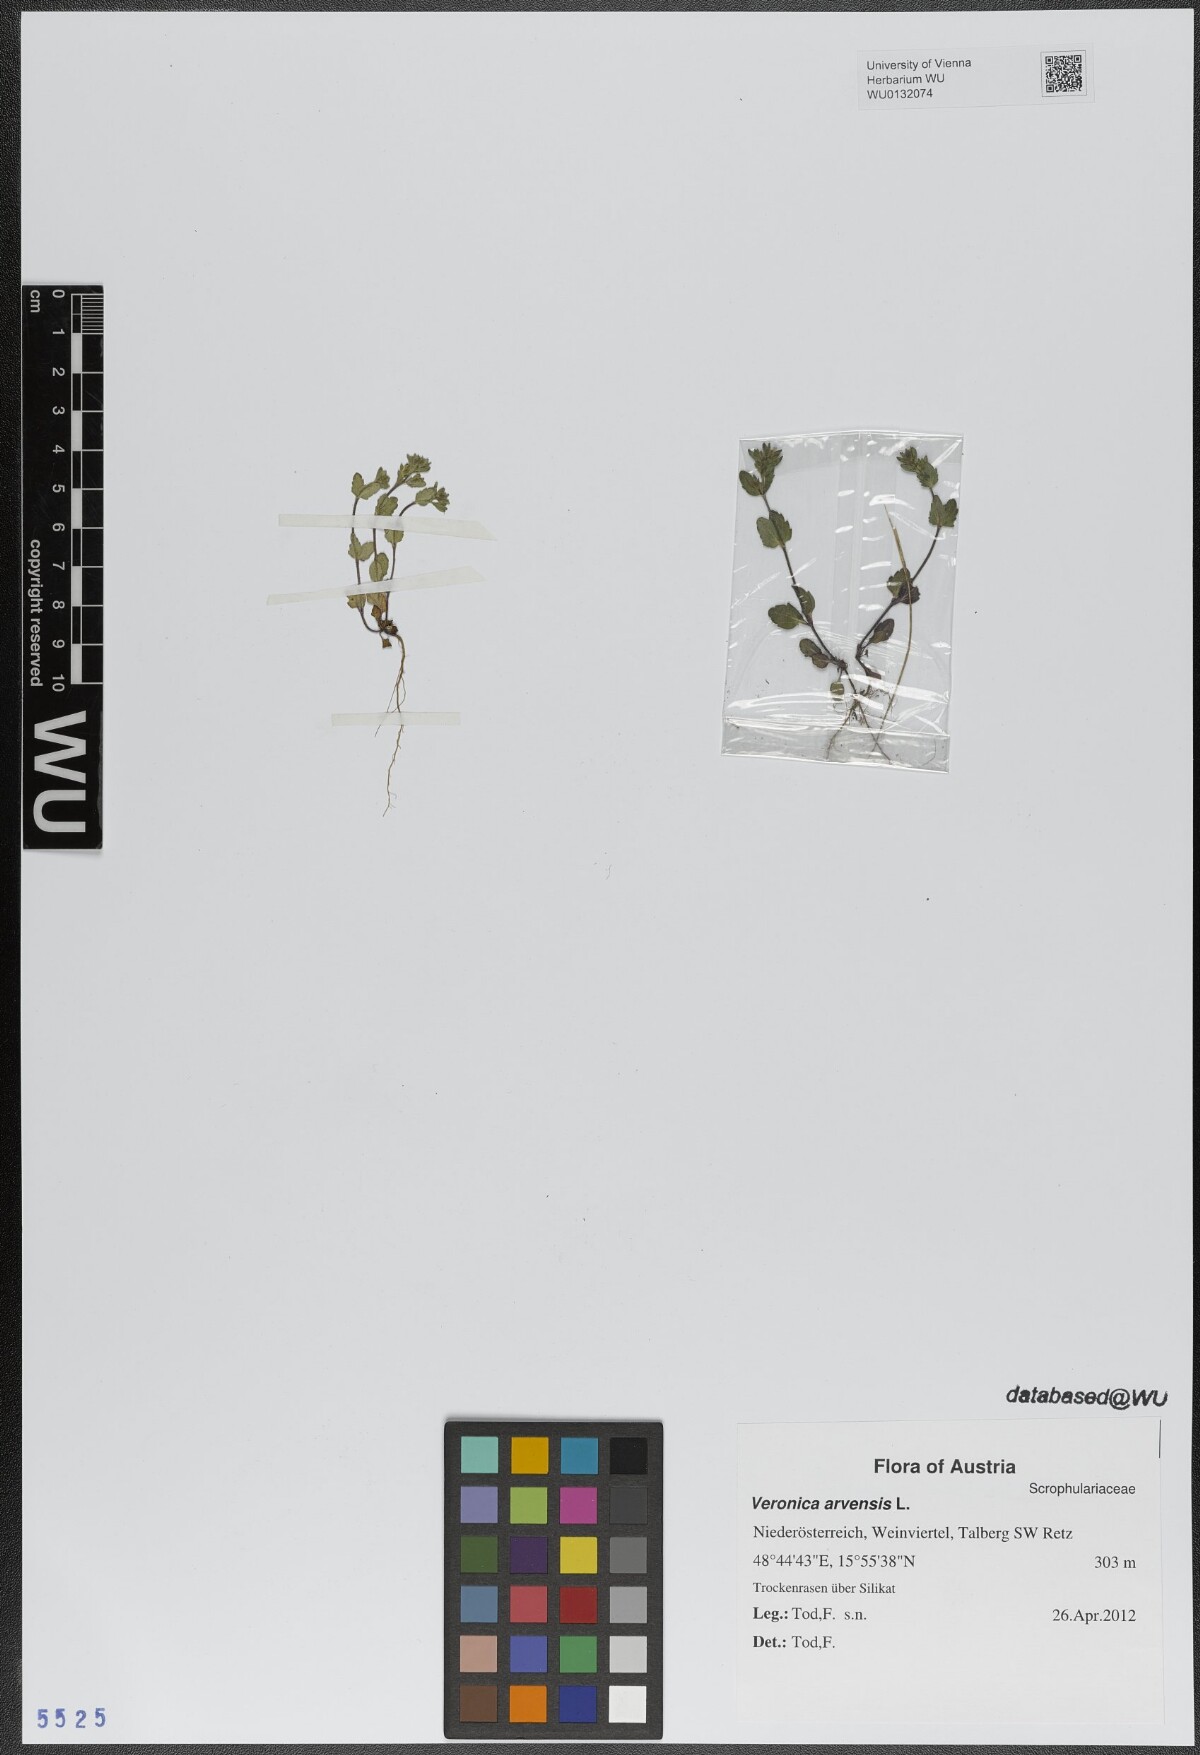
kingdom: Plantae
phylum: Tracheophyta
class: Magnoliopsida
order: Lamiales
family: Plantaginaceae
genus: Veronica
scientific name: Veronica arvensis
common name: Corn speedwell
